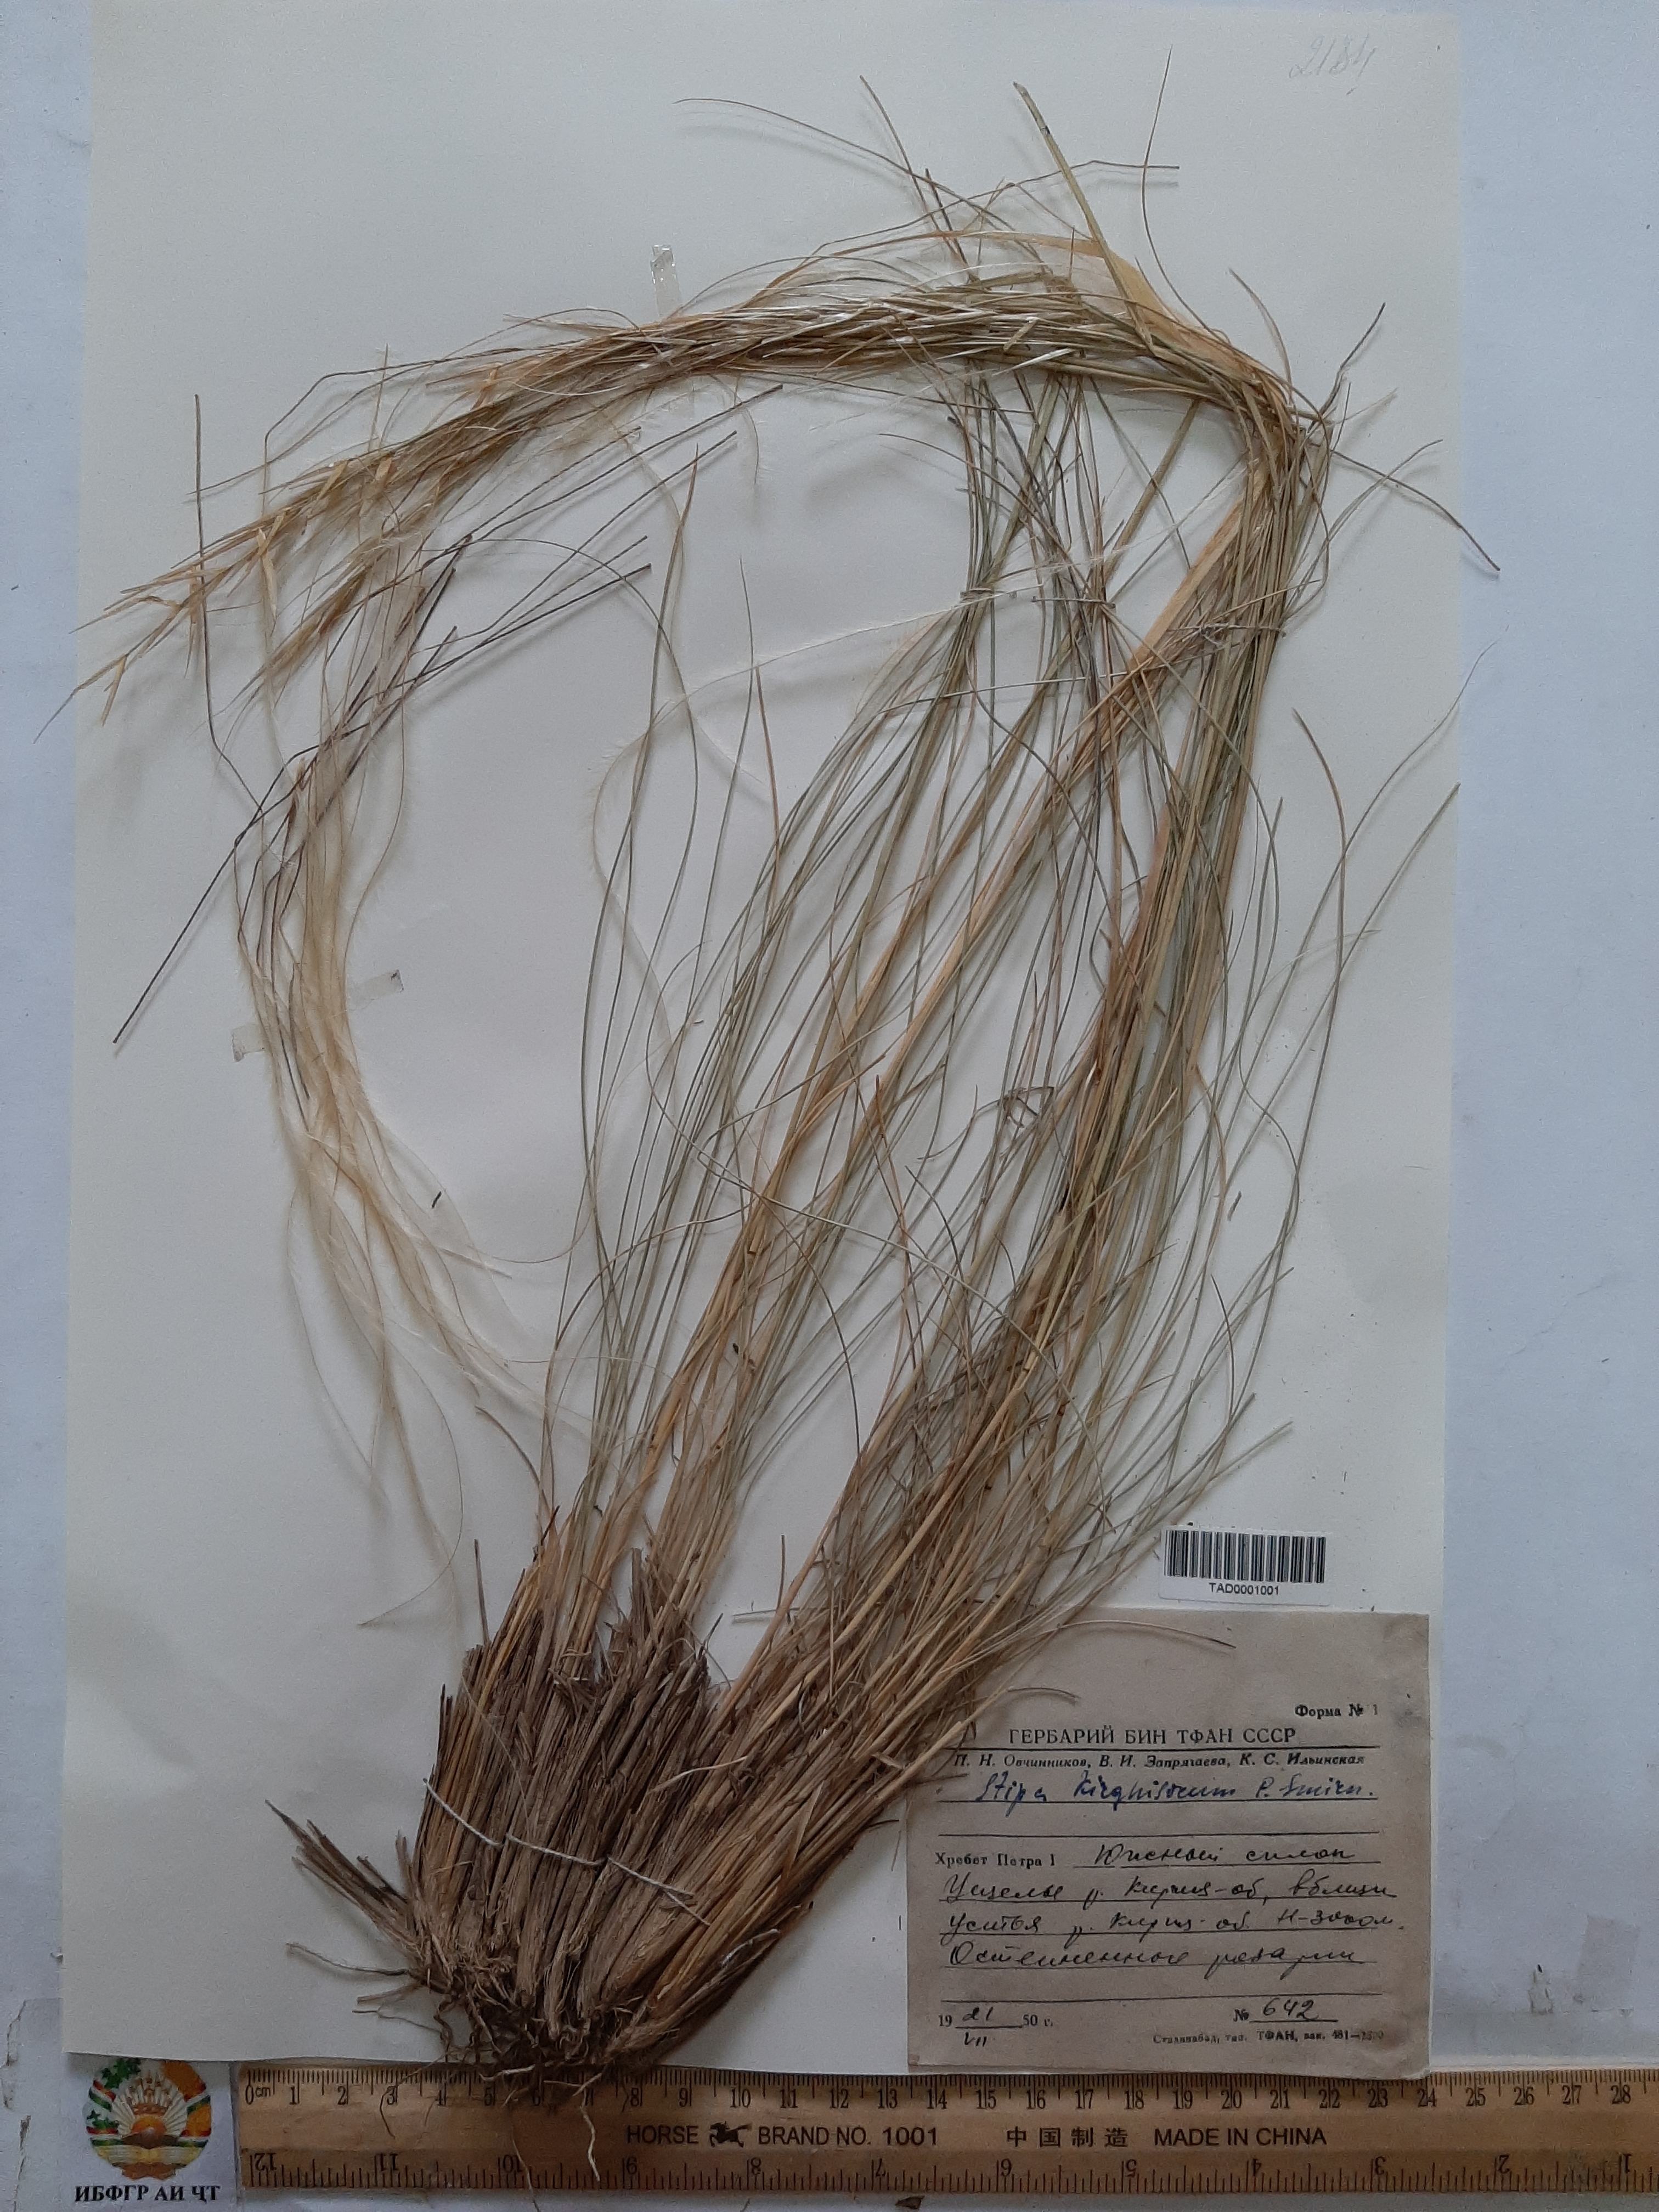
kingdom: Plantae
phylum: Tracheophyta
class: Liliopsida
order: Poales
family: Poaceae
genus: Stipa
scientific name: Stipa kirghisorum
